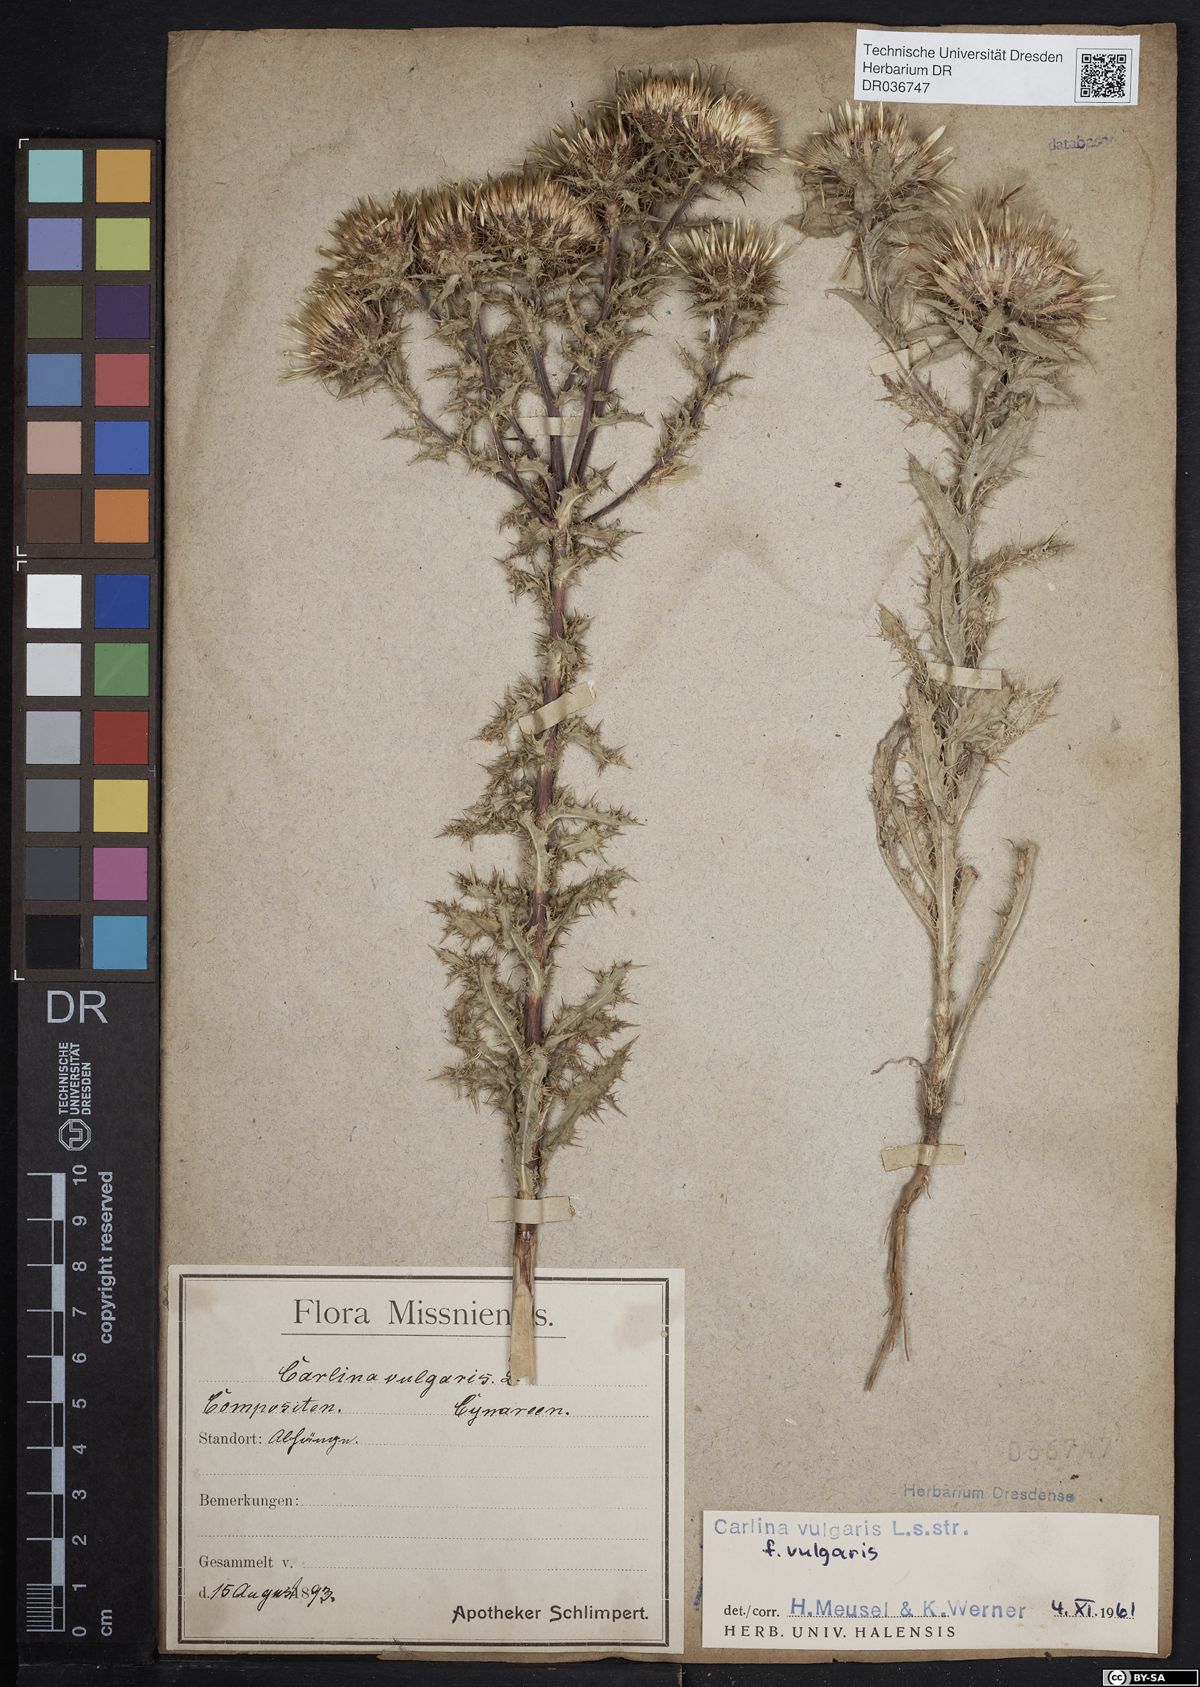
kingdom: Plantae
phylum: Tracheophyta
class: Magnoliopsida
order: Asterales
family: Asteraceae
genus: Carlina
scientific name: Carlina vulgaris
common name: Carline thistle
